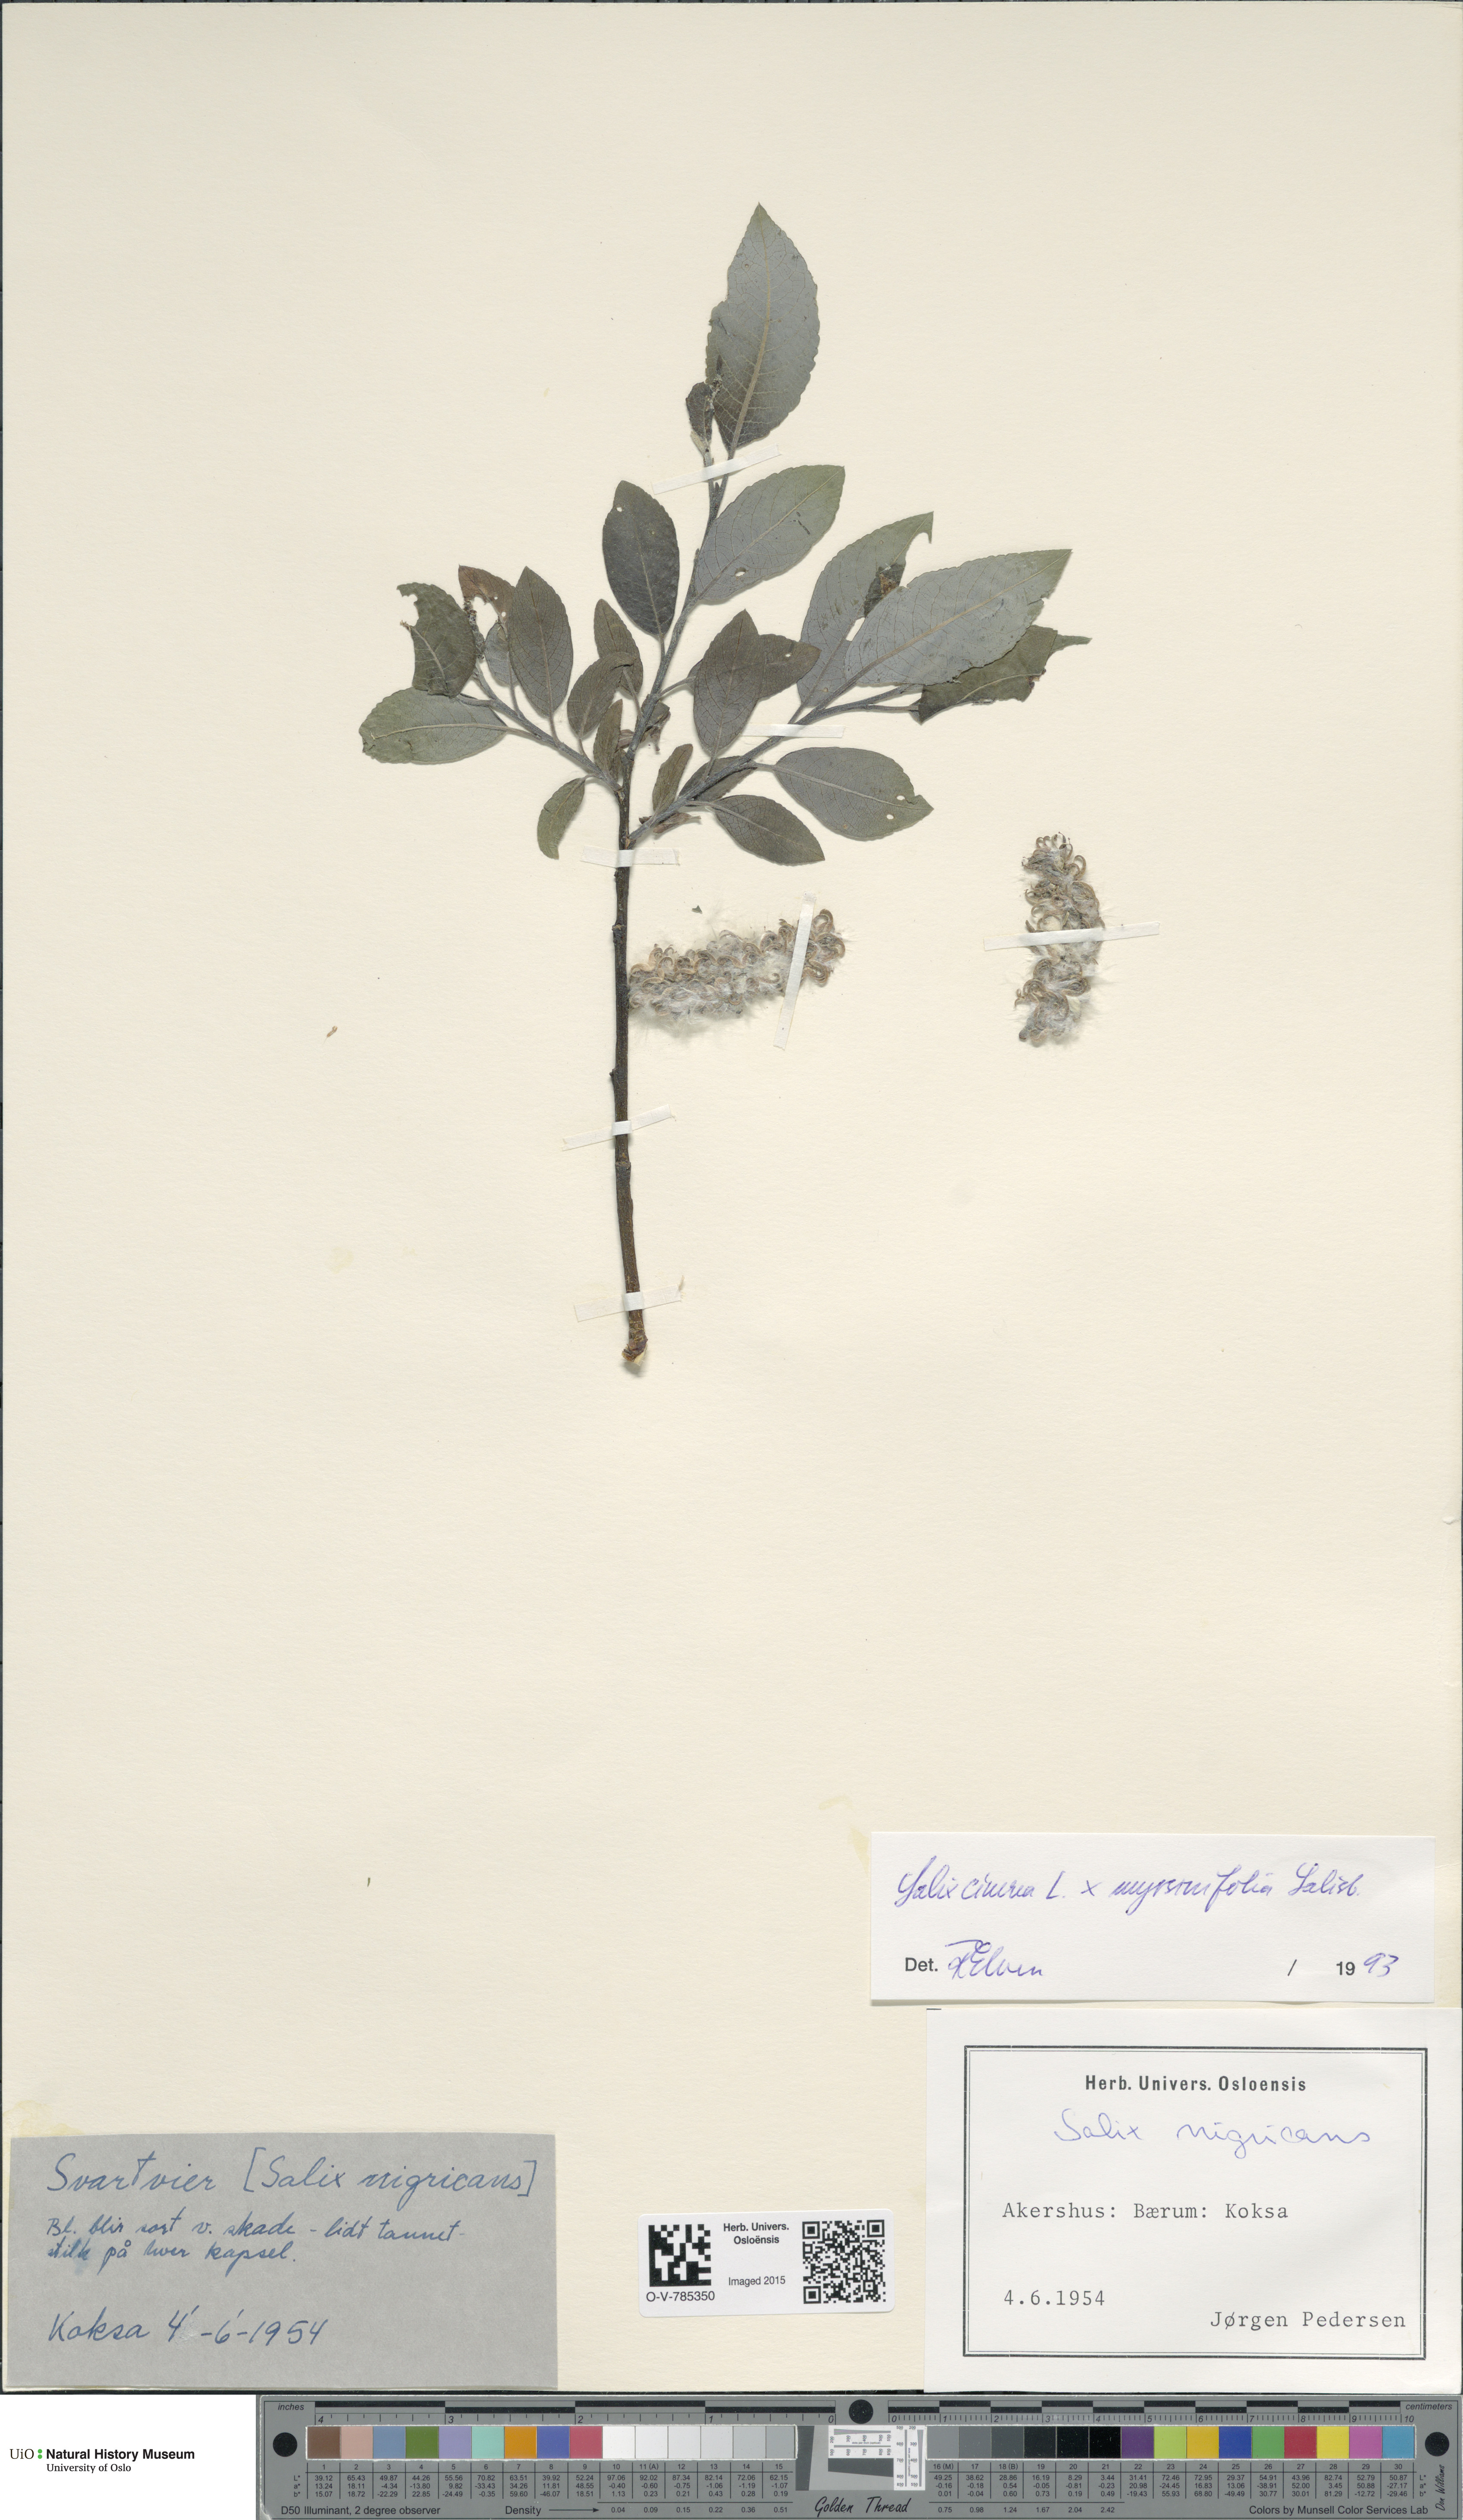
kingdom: Plantae
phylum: Tracheophyta
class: Magnoliopsida
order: Malpighiales
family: Salicaceae
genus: Salix
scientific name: Salix
